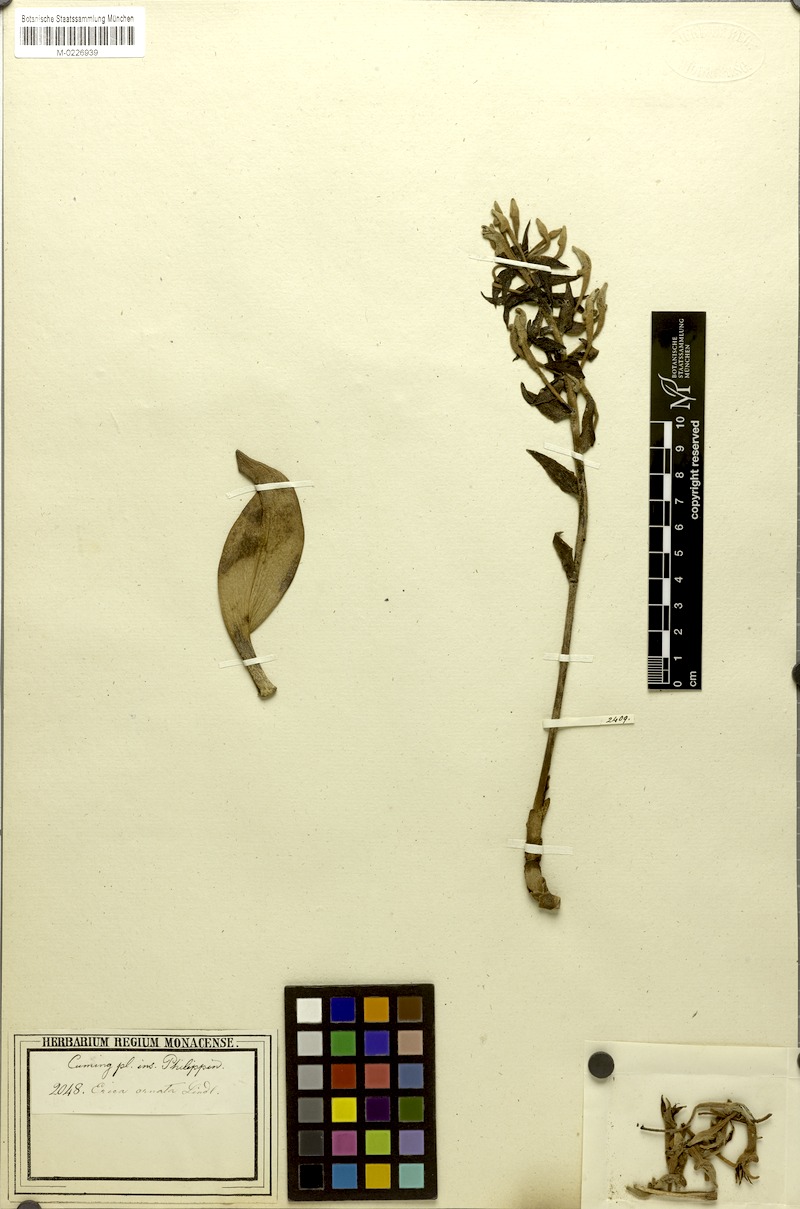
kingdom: Plantae
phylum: Tracheophyta
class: Liliopsida
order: Asparagales
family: Orchidaceae
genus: Dendrolirium
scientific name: Dendrolirium ornatum
